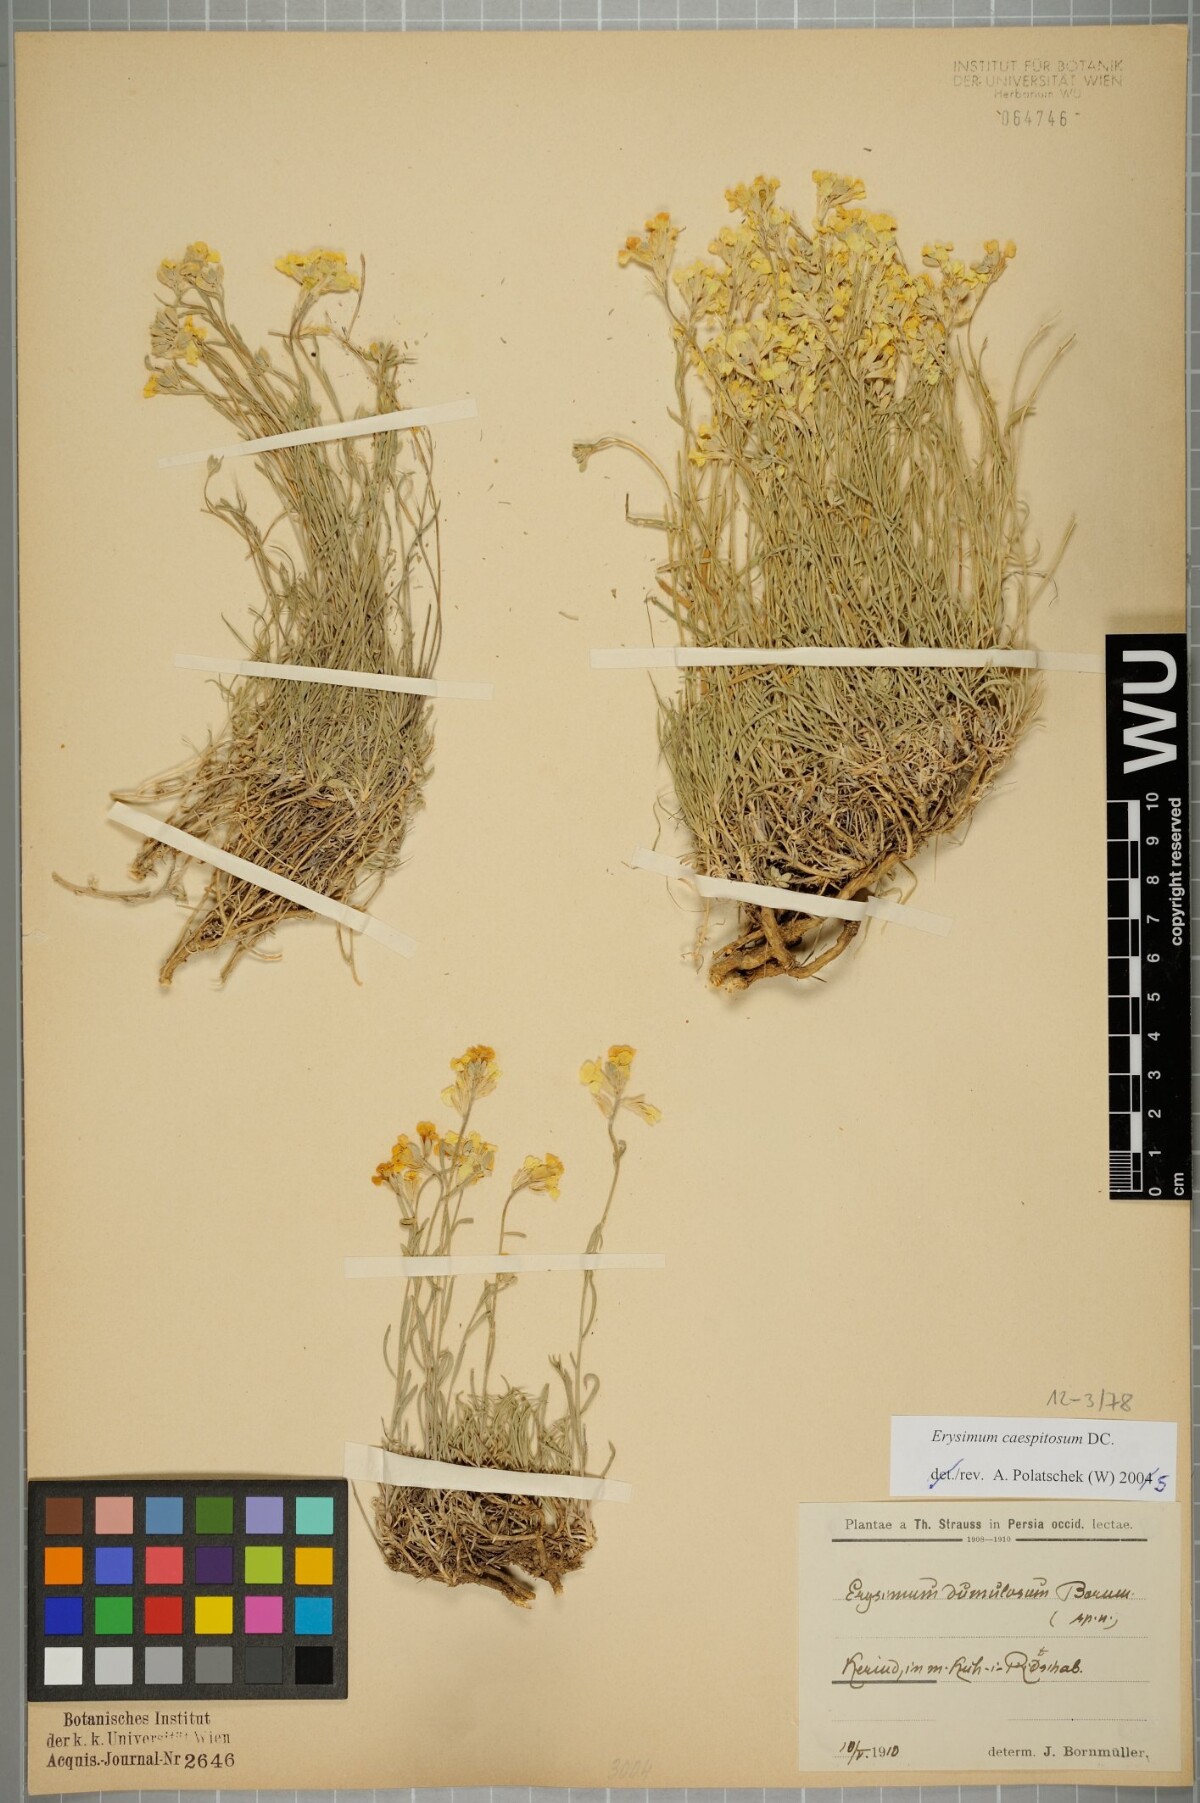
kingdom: Plantae
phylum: Tracheophyta
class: Magnoliopsida
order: Brassicales
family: Brassicaceae
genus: Erysimum
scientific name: Erysimum caespitosum
